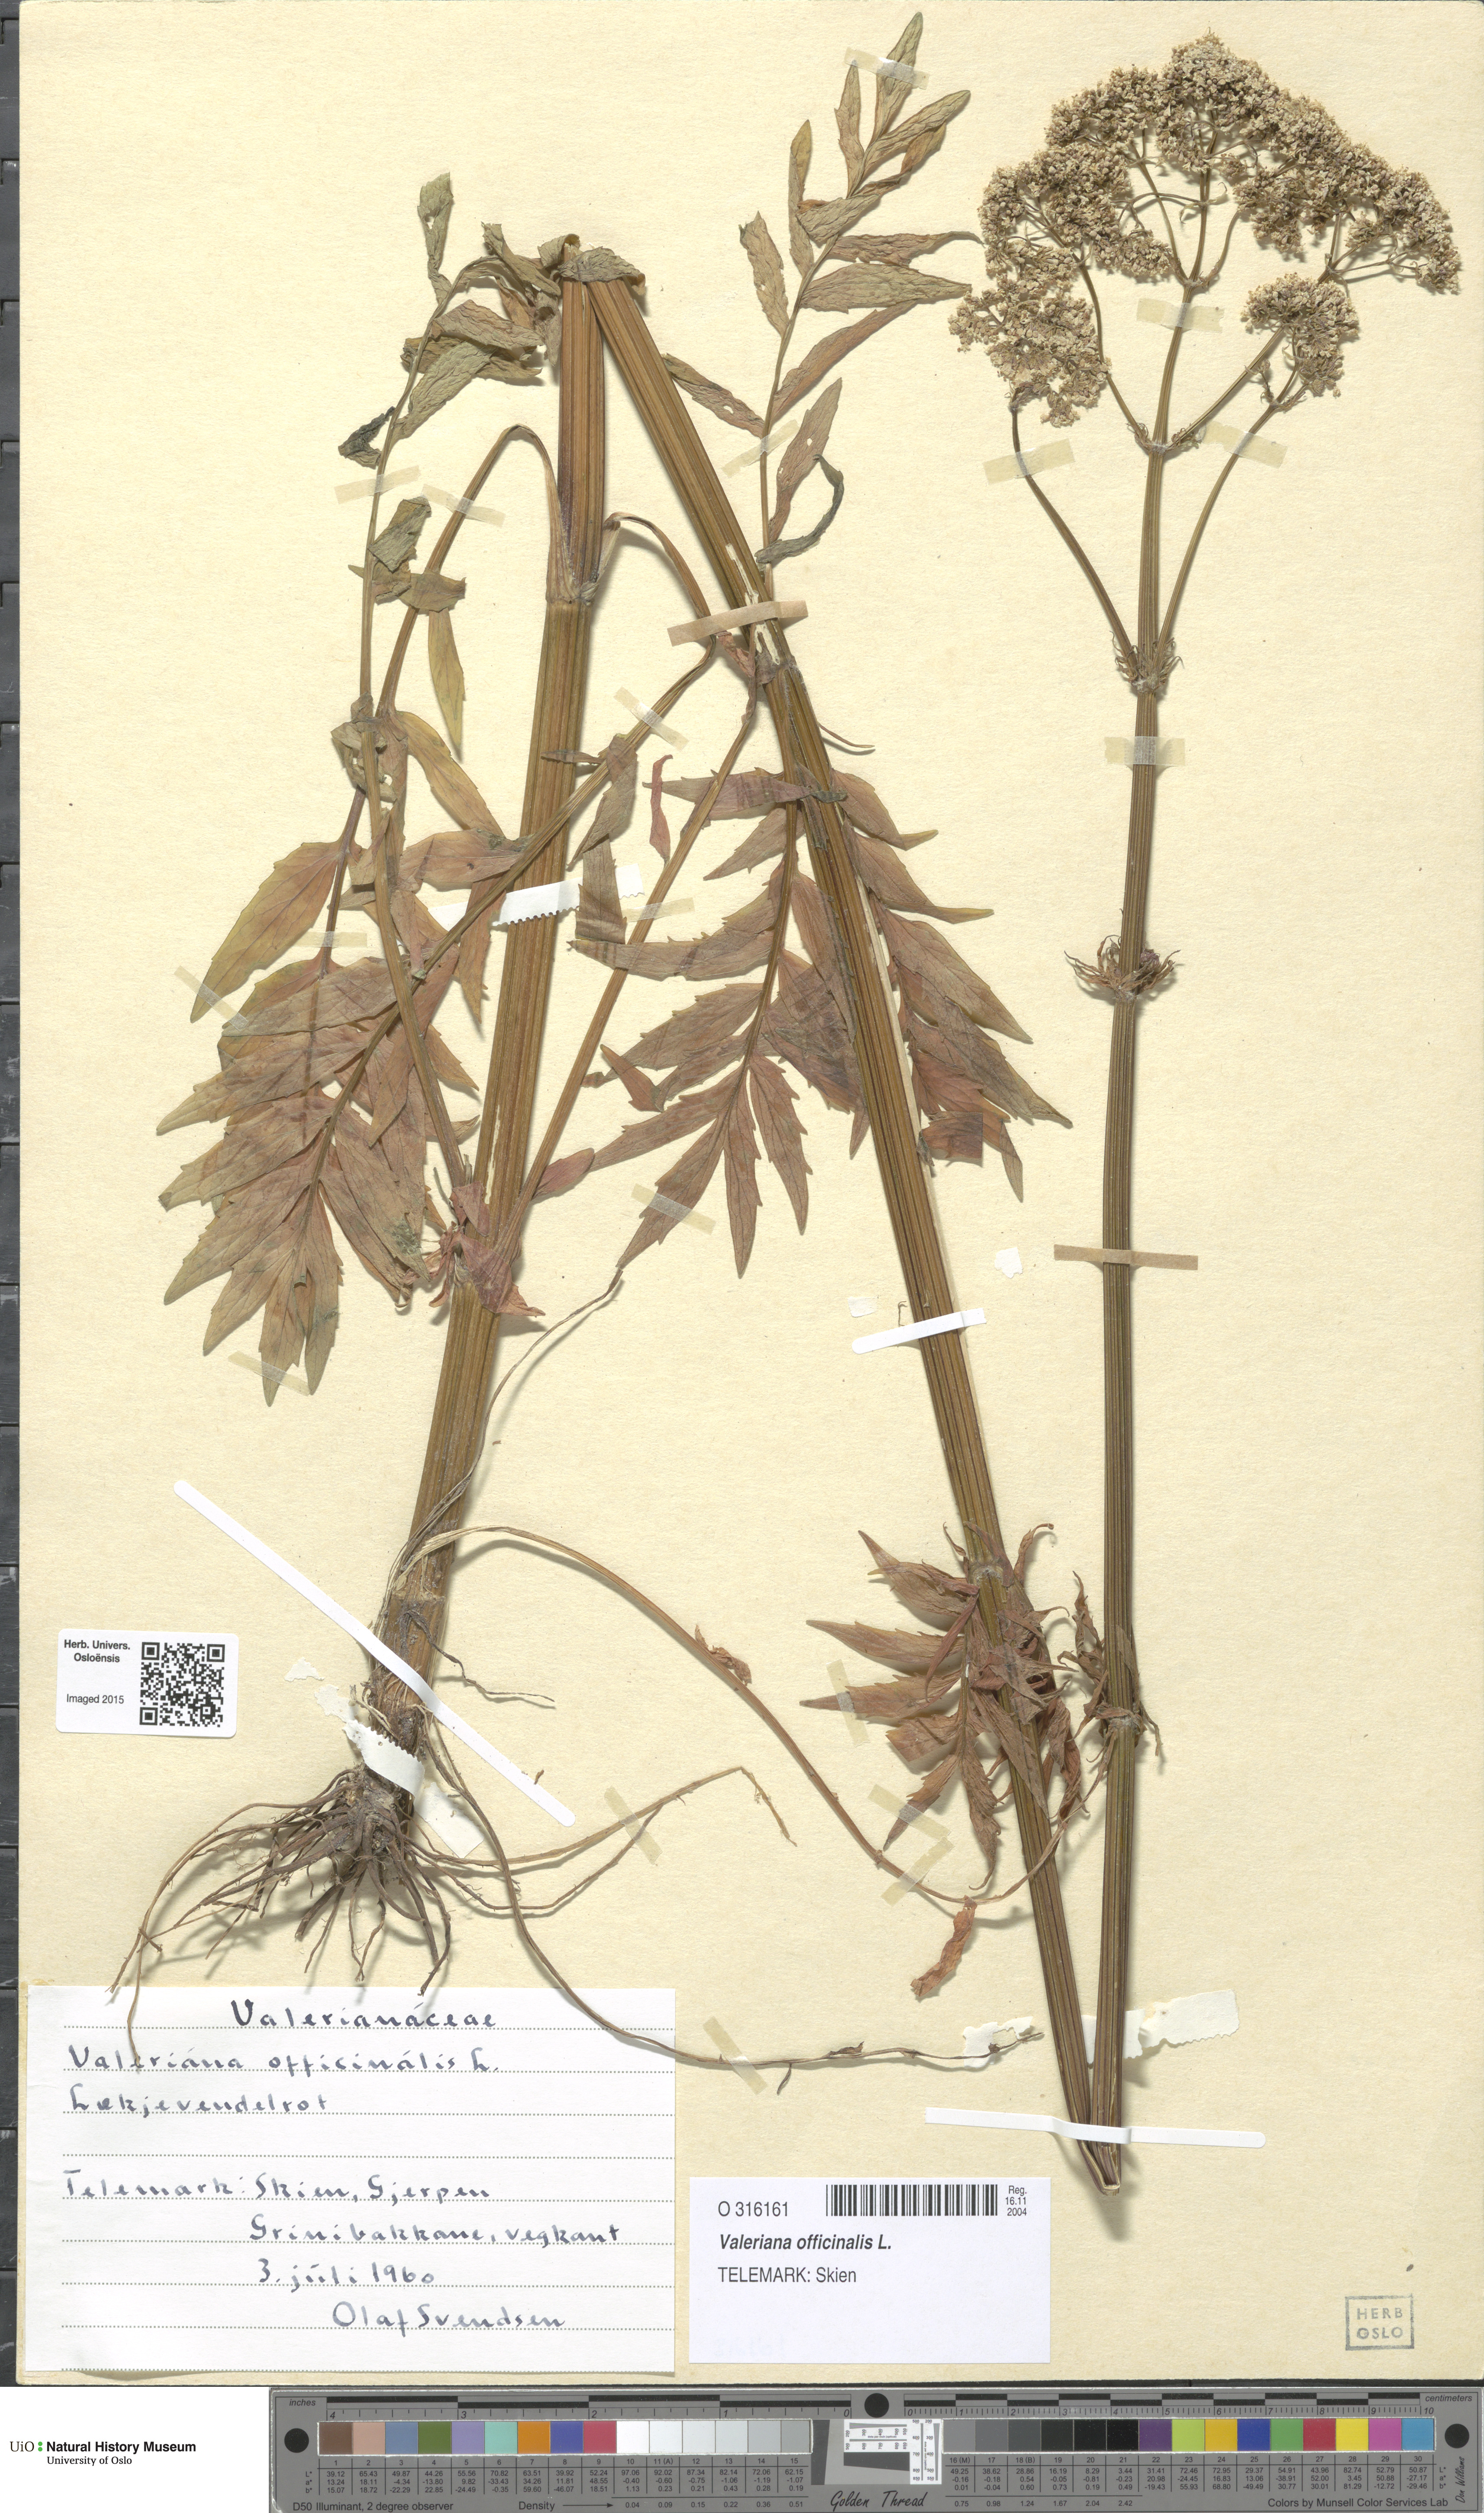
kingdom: Plantae
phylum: Tracheophyta
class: Magnoliopsida
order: Dipsacales
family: Caprifoliaceae
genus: Valeriana
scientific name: Valeriana officinalis
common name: Common valerian
